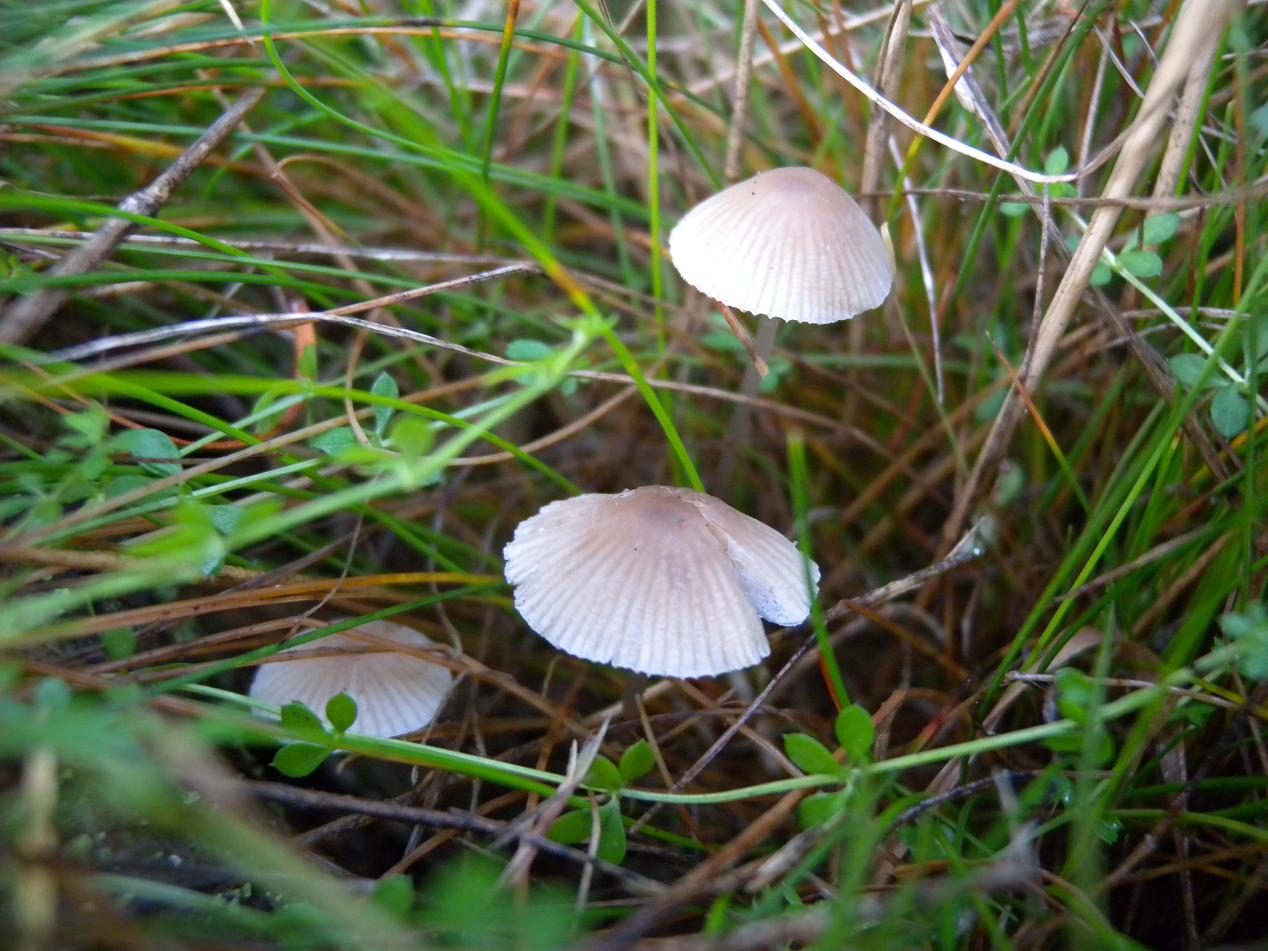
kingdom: Fungi
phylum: Basidiomycota
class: Agaricomycetes
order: Agaricales
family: Mycenaceae
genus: Mycena
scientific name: Mycena filopes
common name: jod-huesvamp
